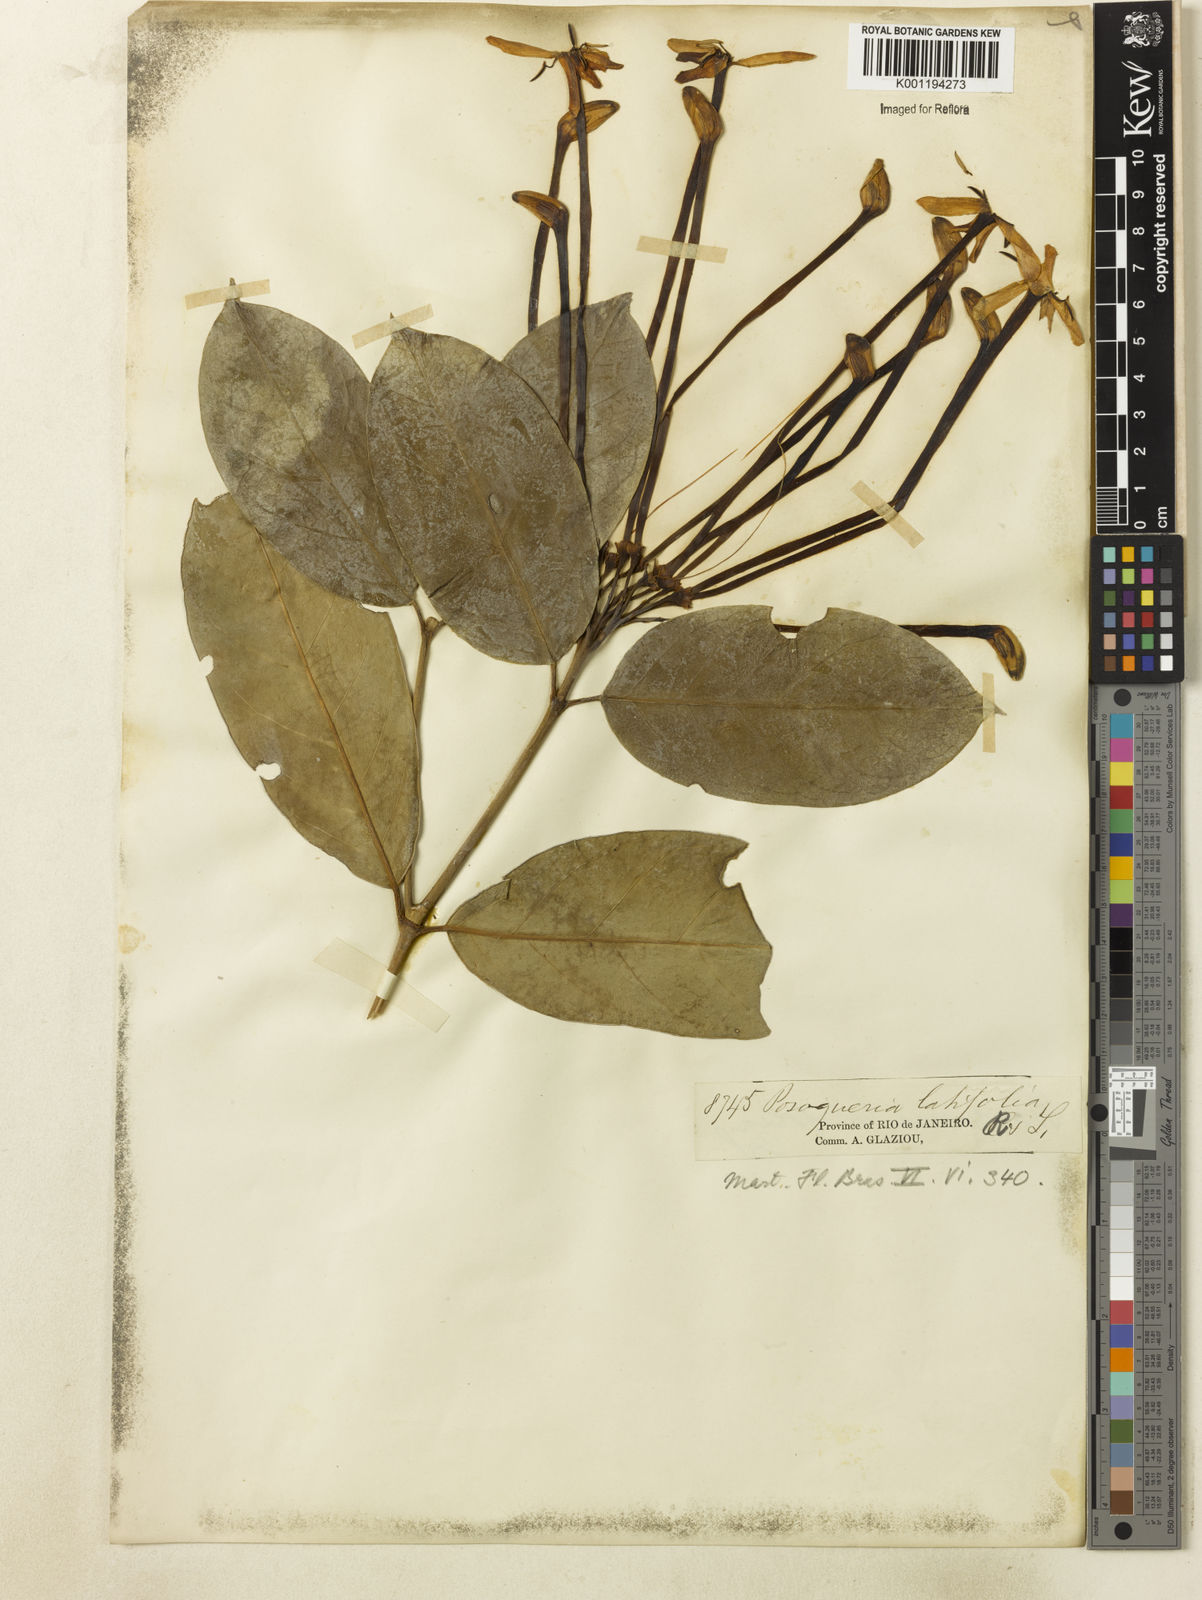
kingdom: Plantae
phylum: Tracheophyta
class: Magnoliopsida
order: Gentianales
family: Rubiaceae
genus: Posoqueria
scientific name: Posoqueria latifolia
